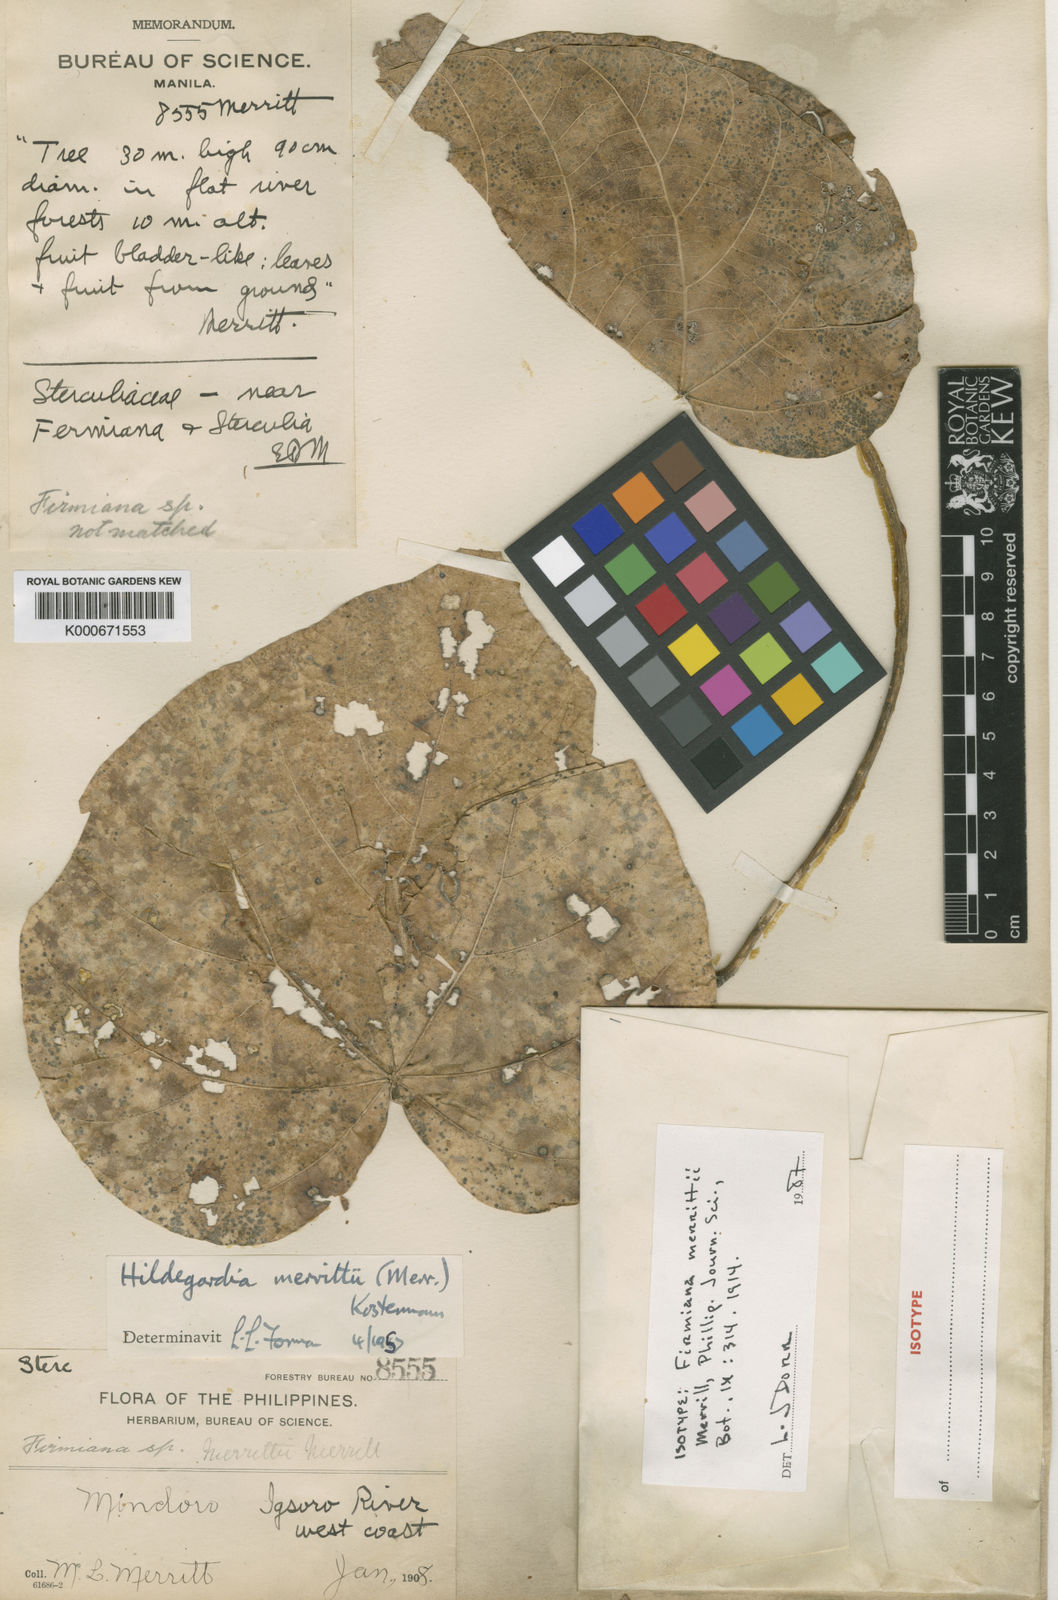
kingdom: Plantae
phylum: Tracheophyta
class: Magnoliopsida
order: Malvales
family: Malvaceae
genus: Hildegardia
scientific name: Hildegardia merrittii
